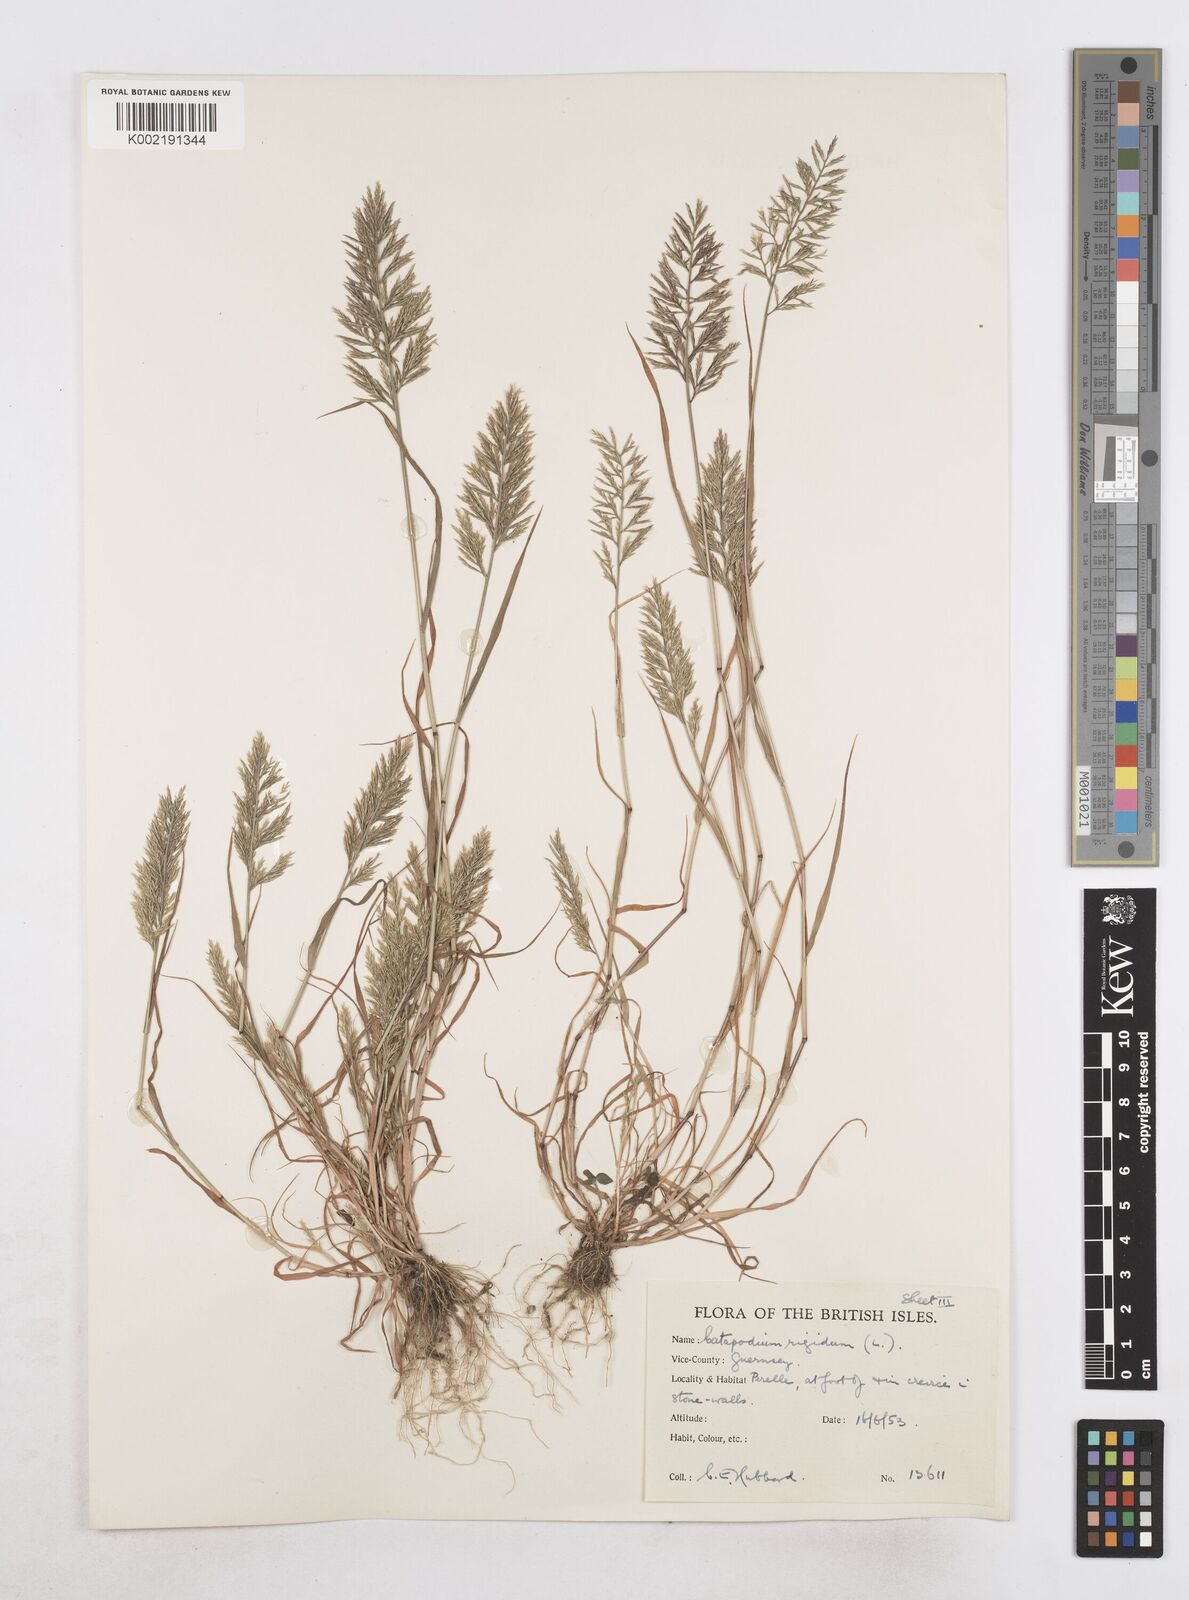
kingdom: Plantae
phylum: Tracheophyta
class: Liliopsida
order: Poales
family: Poaceae
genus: Catapodium
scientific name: Catapodium rigidum
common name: Fern-grass
